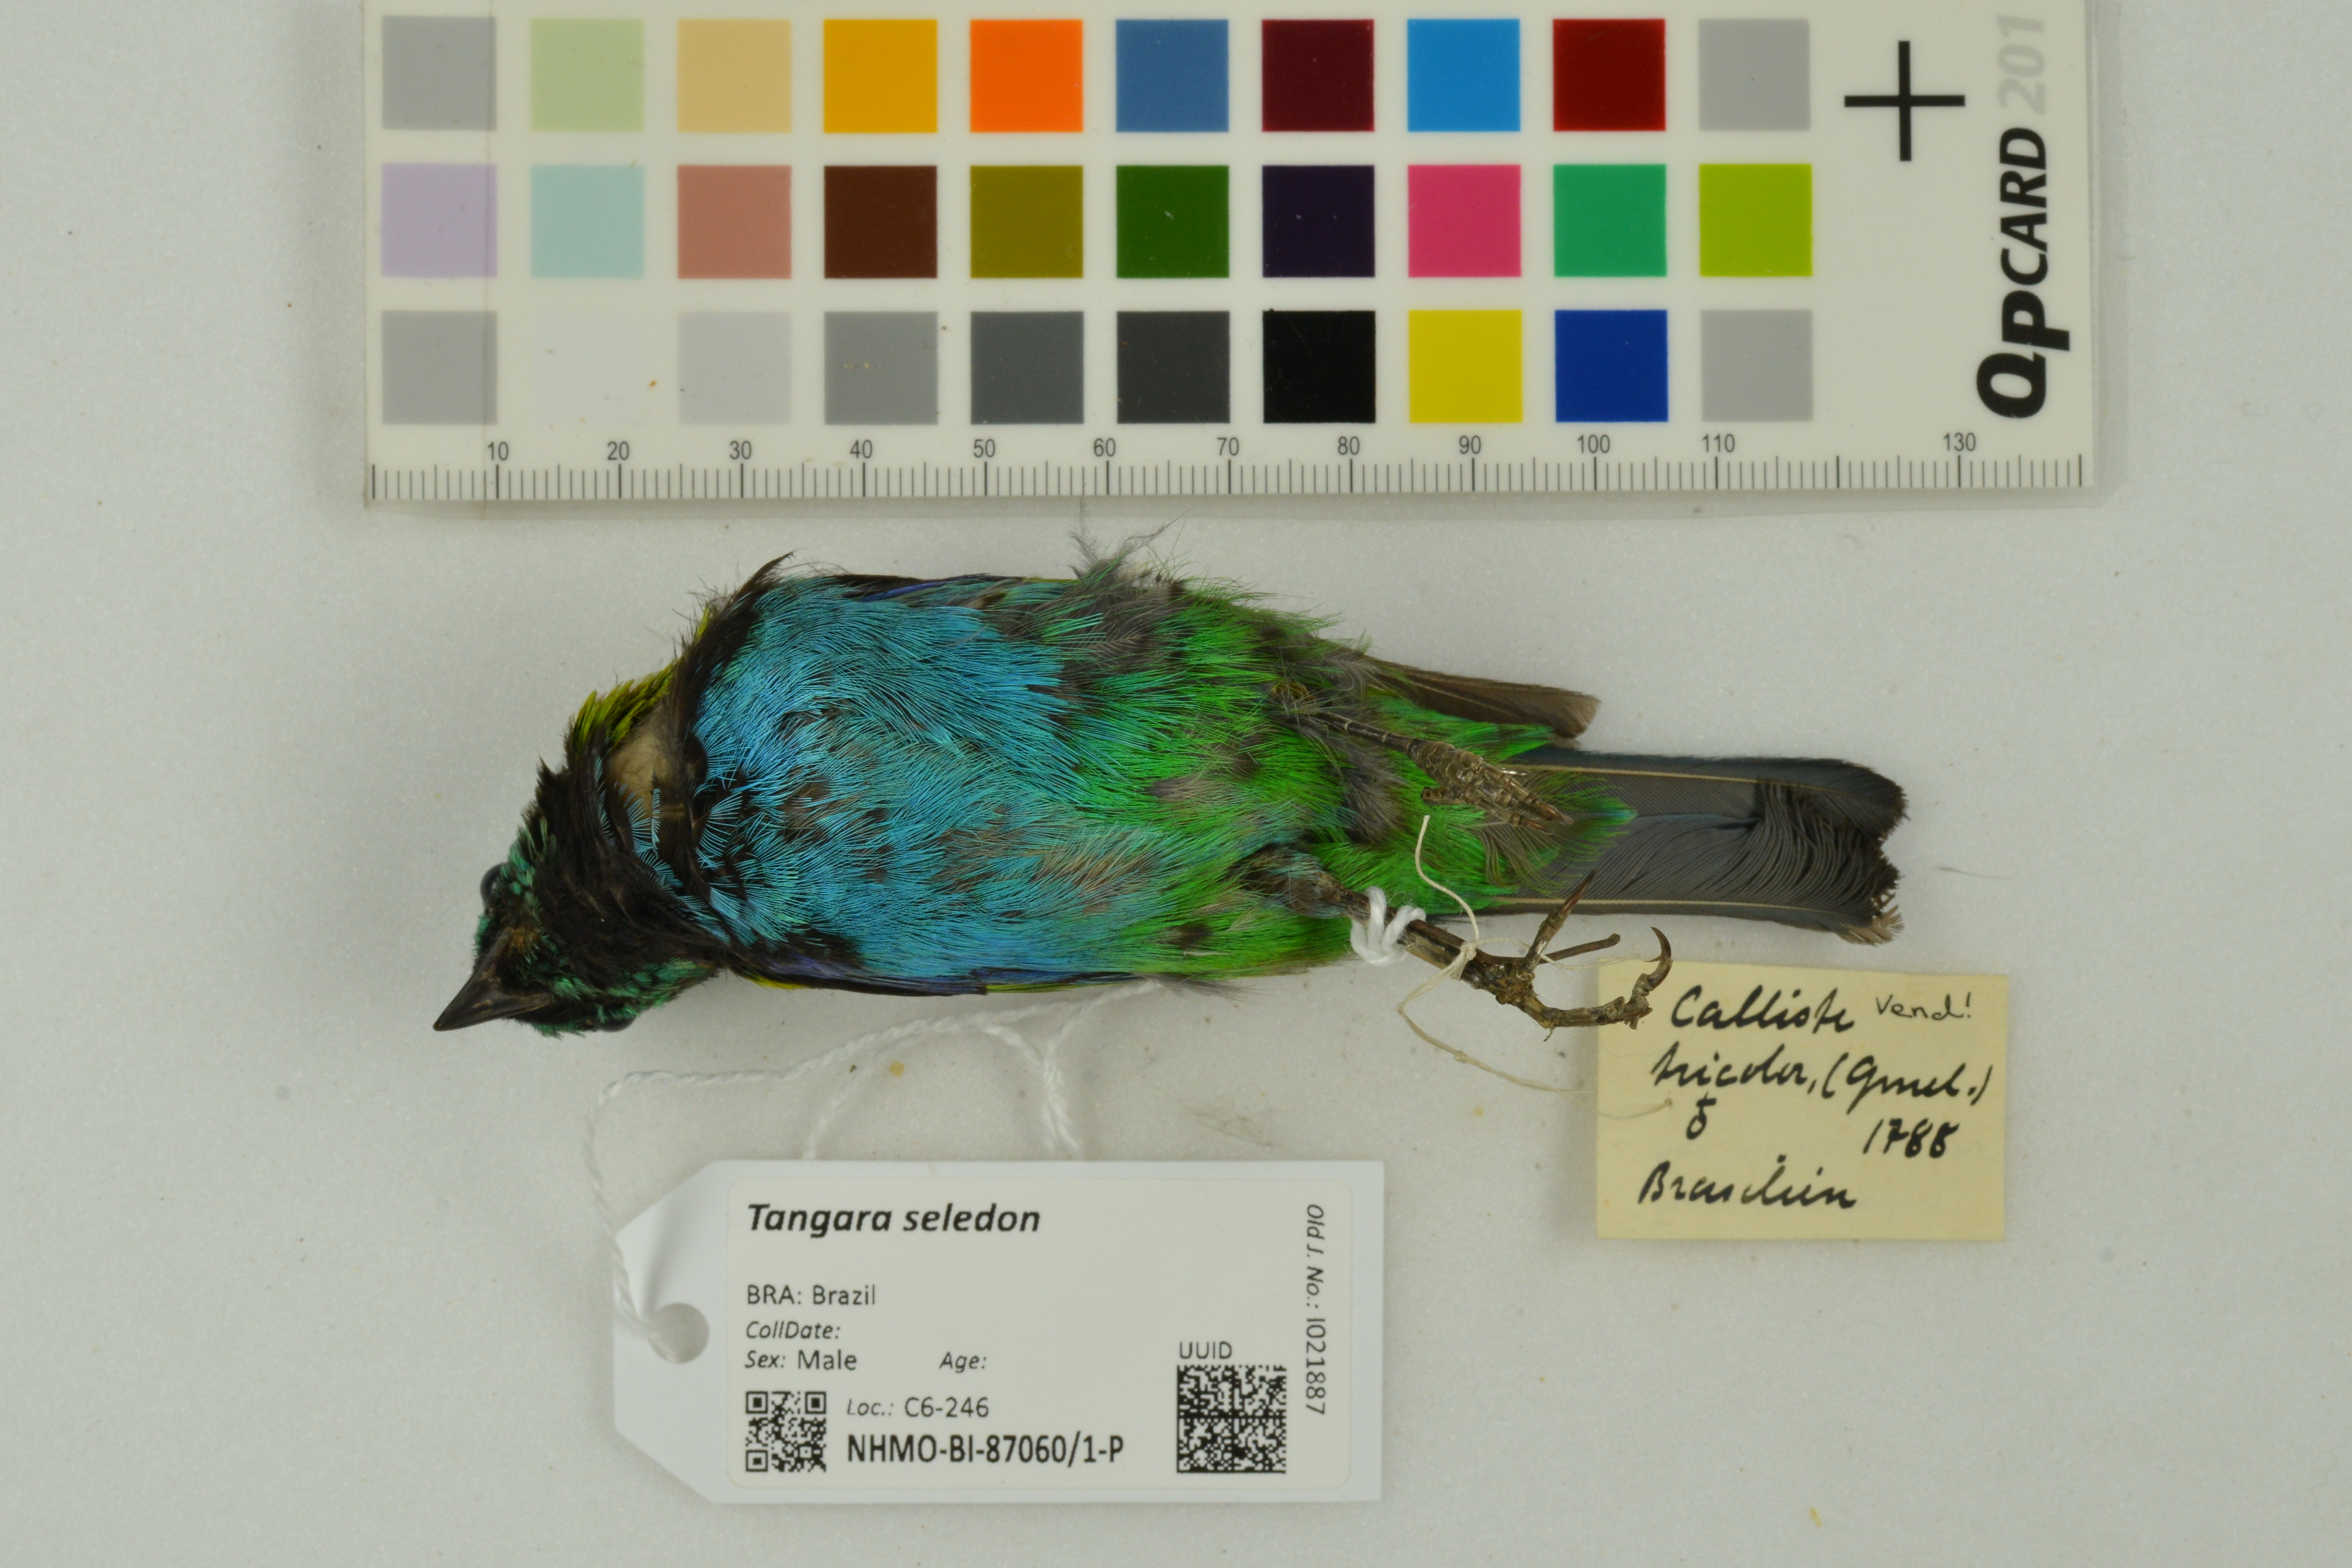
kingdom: Animalia
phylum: Chordata
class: Aves
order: Passeriformes
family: Thraupidae
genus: Tangara
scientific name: Tangara seledon
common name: Green-headed tanager
